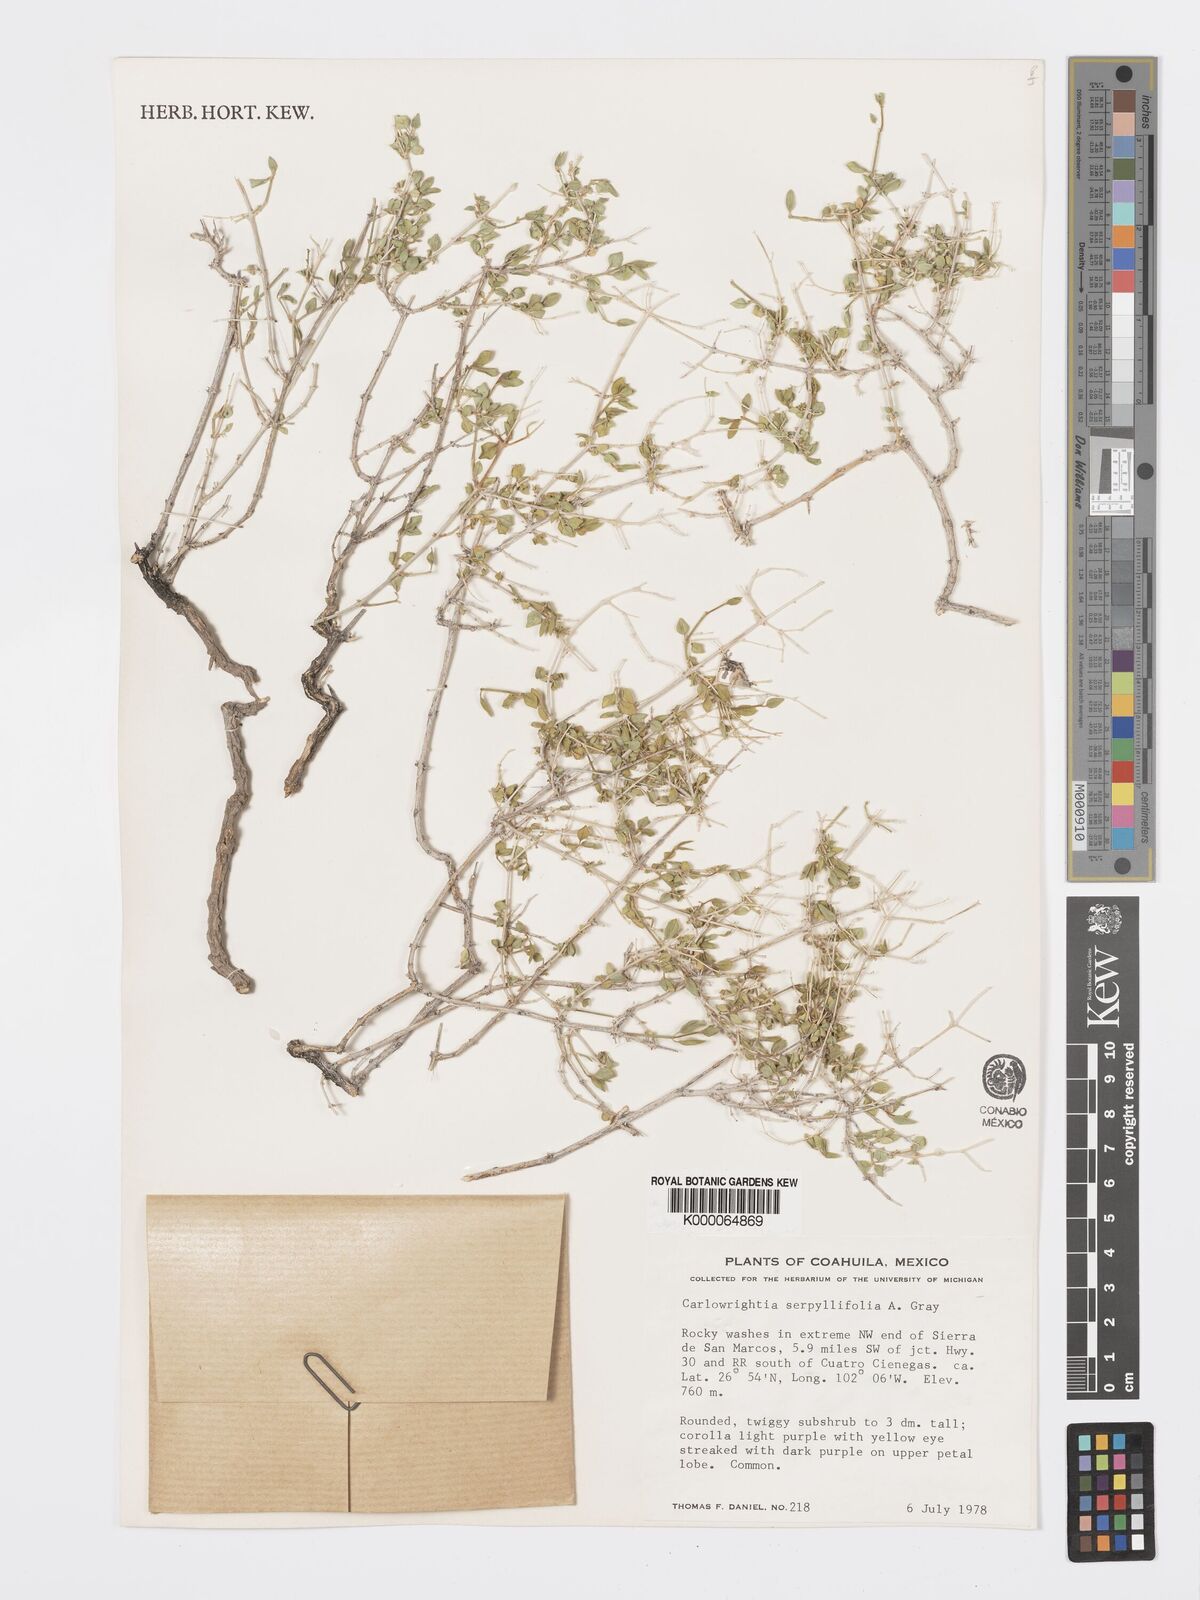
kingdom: Plantae
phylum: Tracheophyta
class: Magnoliopsida
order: Lamiales
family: Acanthaceae
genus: Carlowrightia
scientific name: Carlowrightia serpyllifolia
